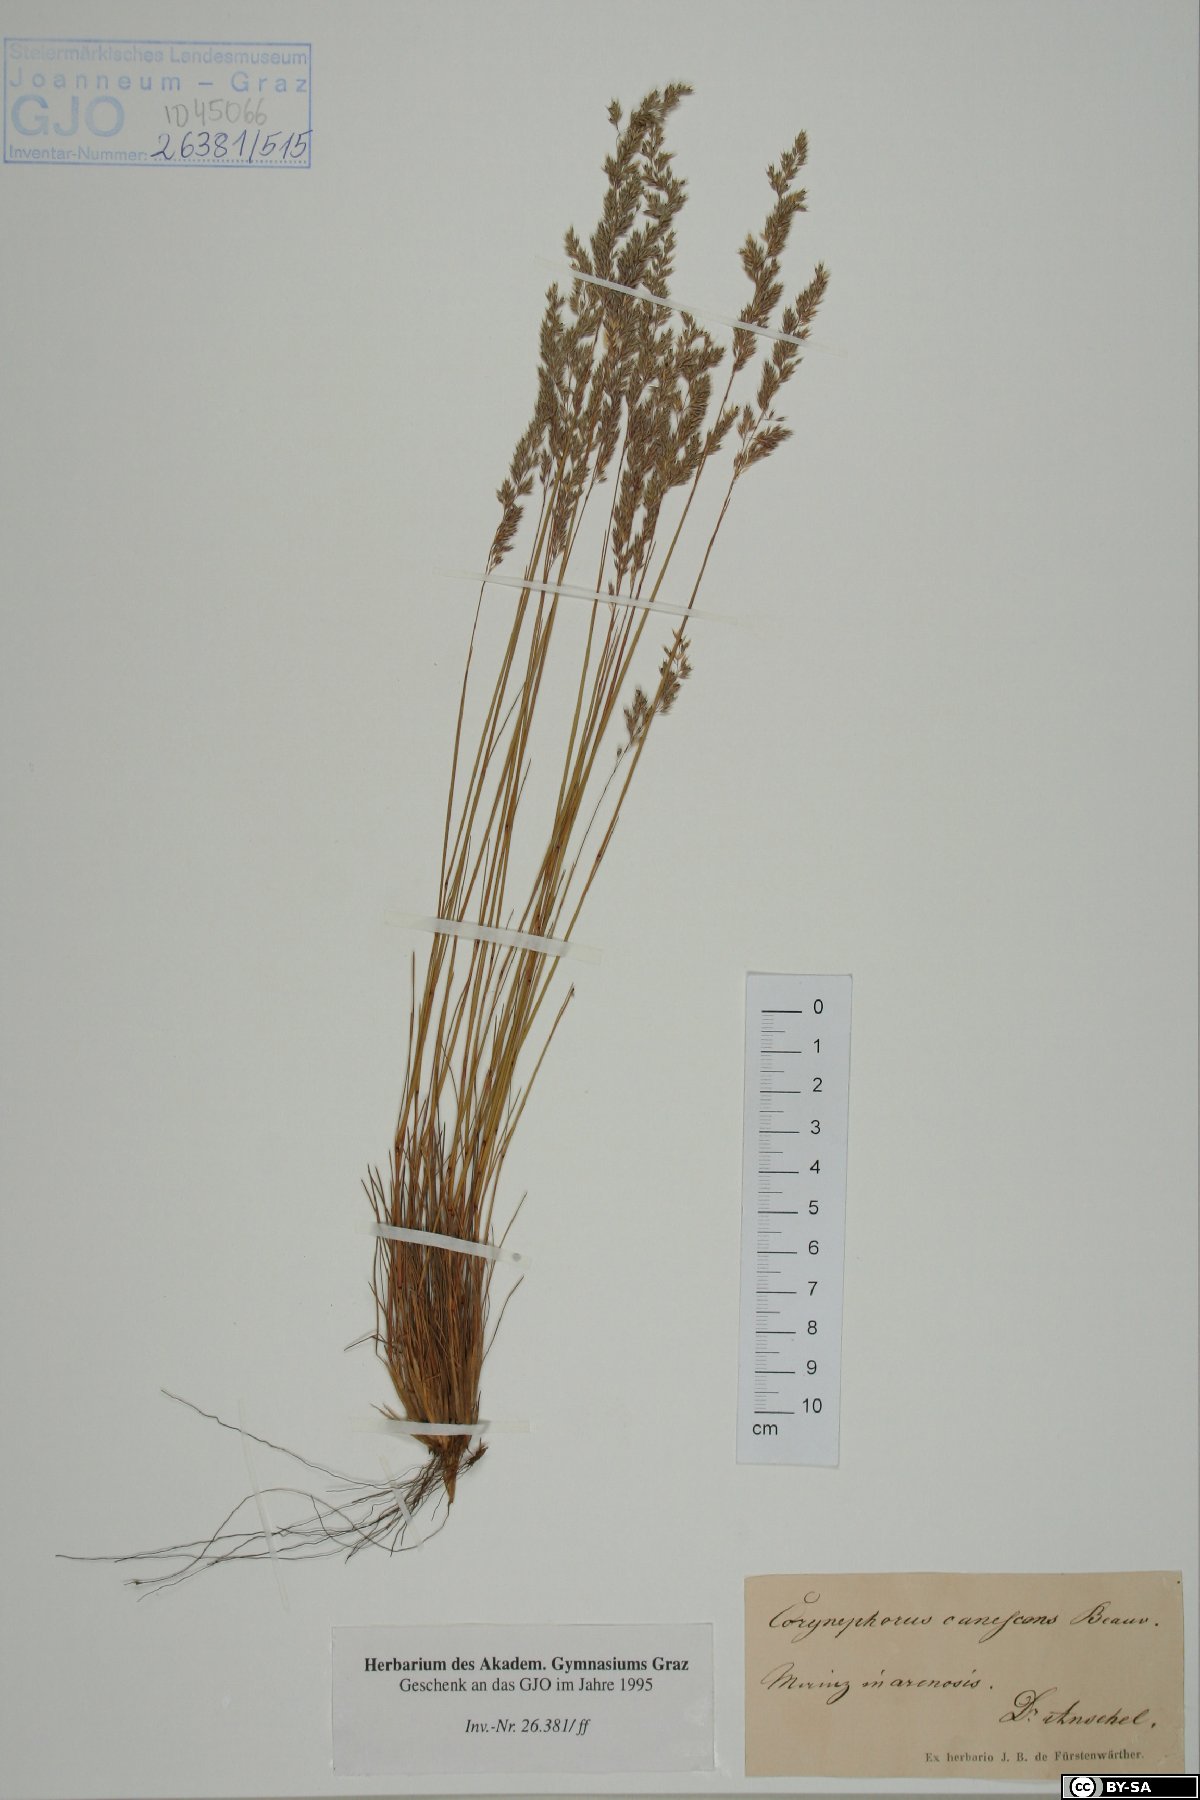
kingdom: Plantae
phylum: Tracheophyta
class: Liliopsida
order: Poales
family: Poaceae
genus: Corynephorus
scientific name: Corynephorus canescens
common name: Grey hair-grass
